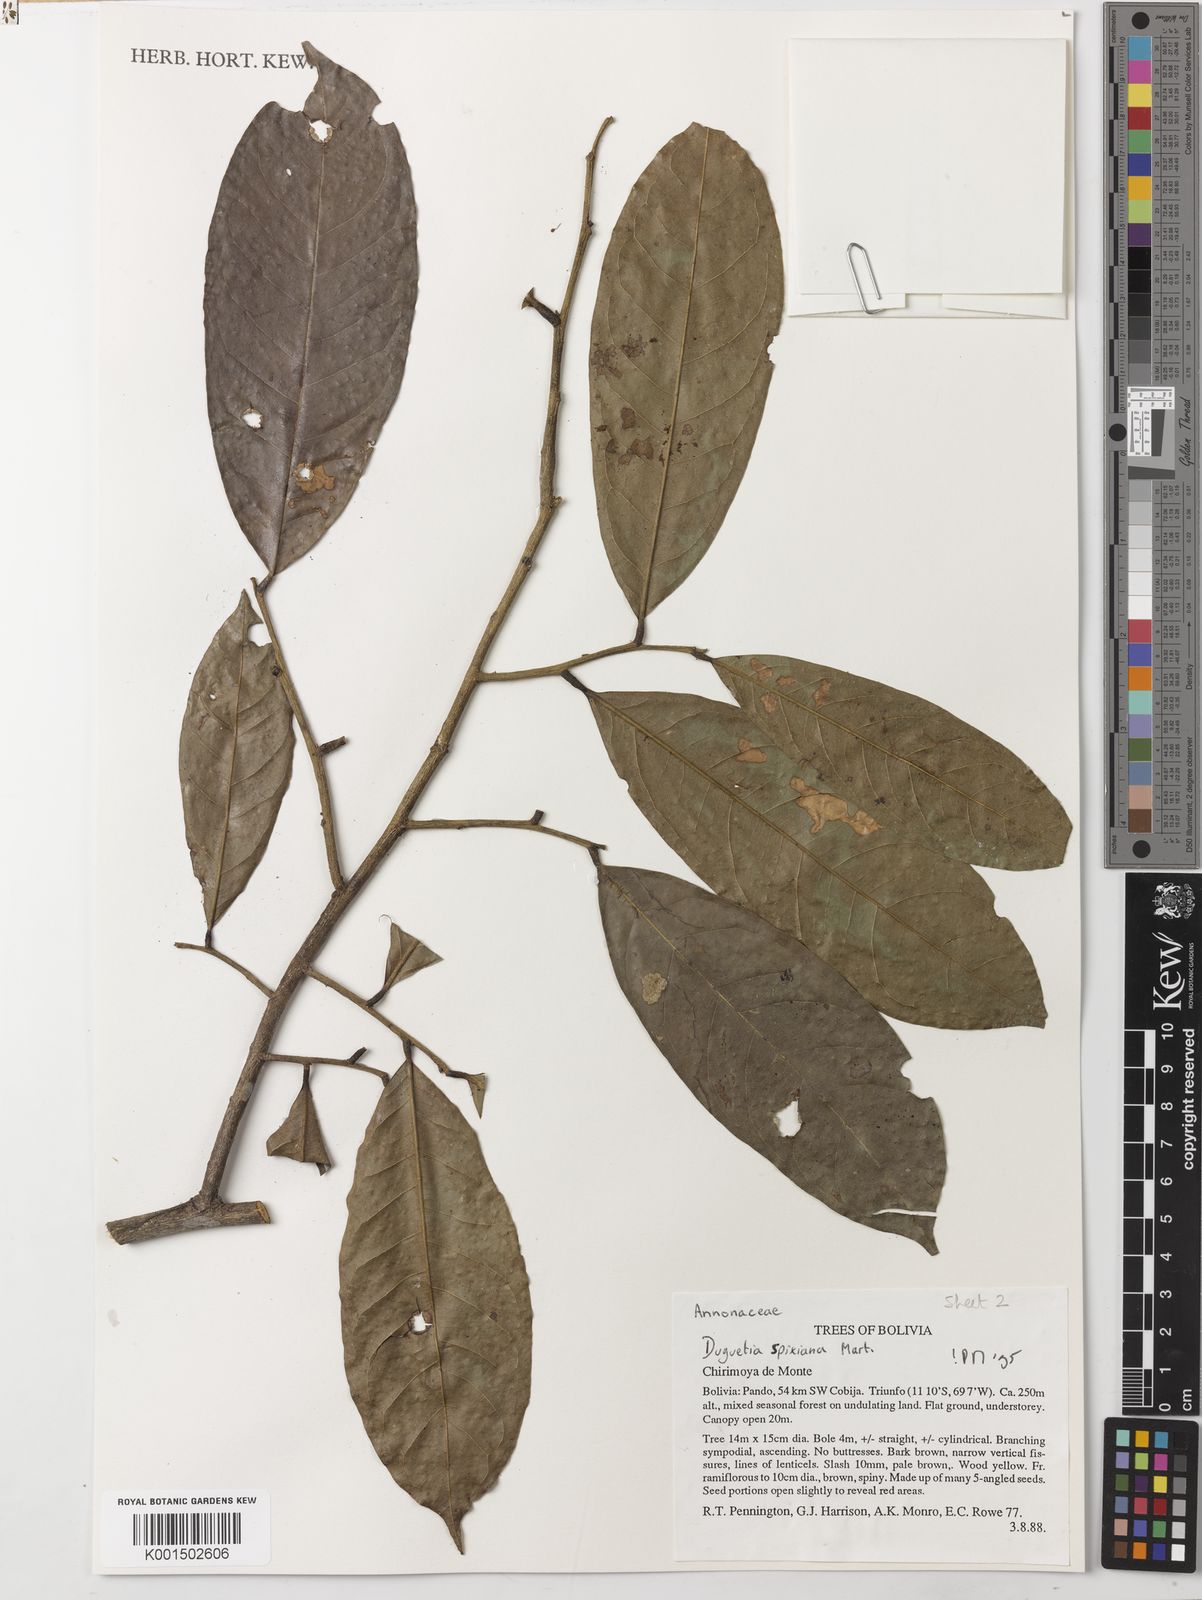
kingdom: Plantae
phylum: Tracheophyta
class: Magnoliopsida
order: Magnoliales
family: Annonaceae
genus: Duguetia
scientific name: Duguetia spixiana
